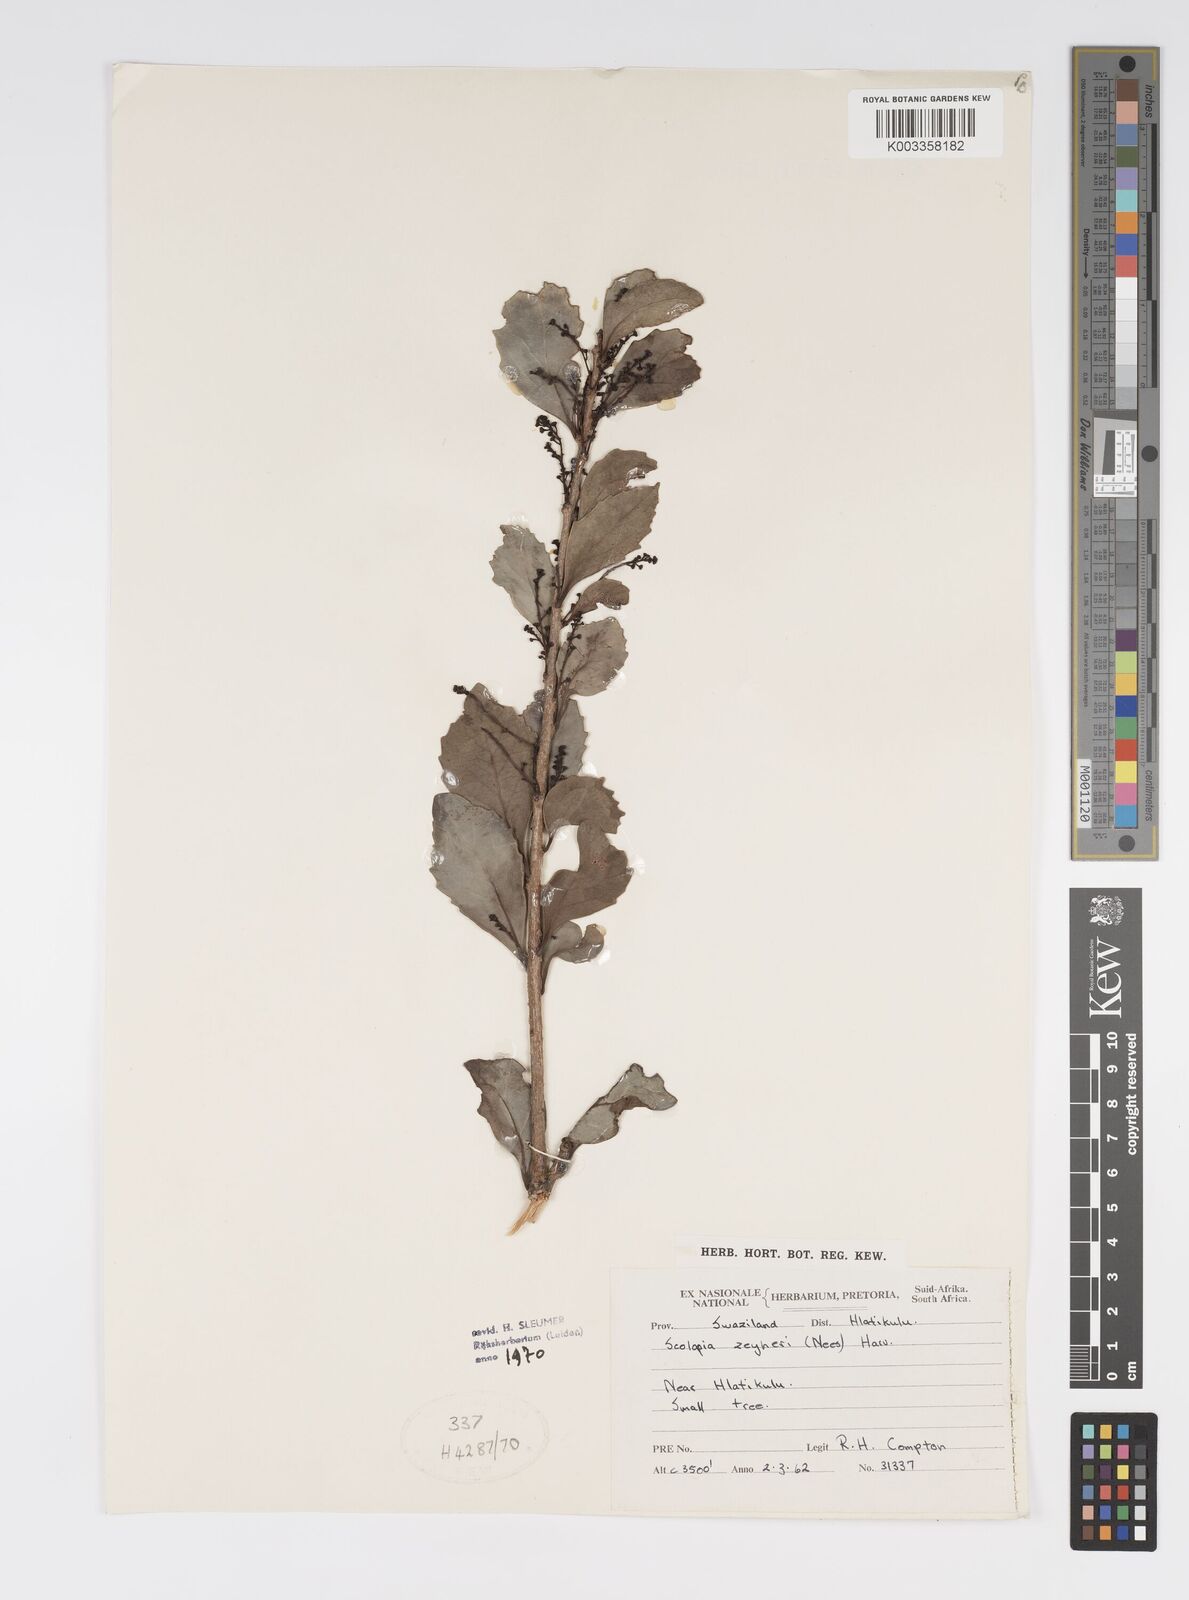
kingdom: Plantae
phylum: Tracheophyta
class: Magnoliopsida
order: Malpighiales
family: Salicaceae
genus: Scolopia
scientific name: Scolopia zeyheri
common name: Thorn pear
